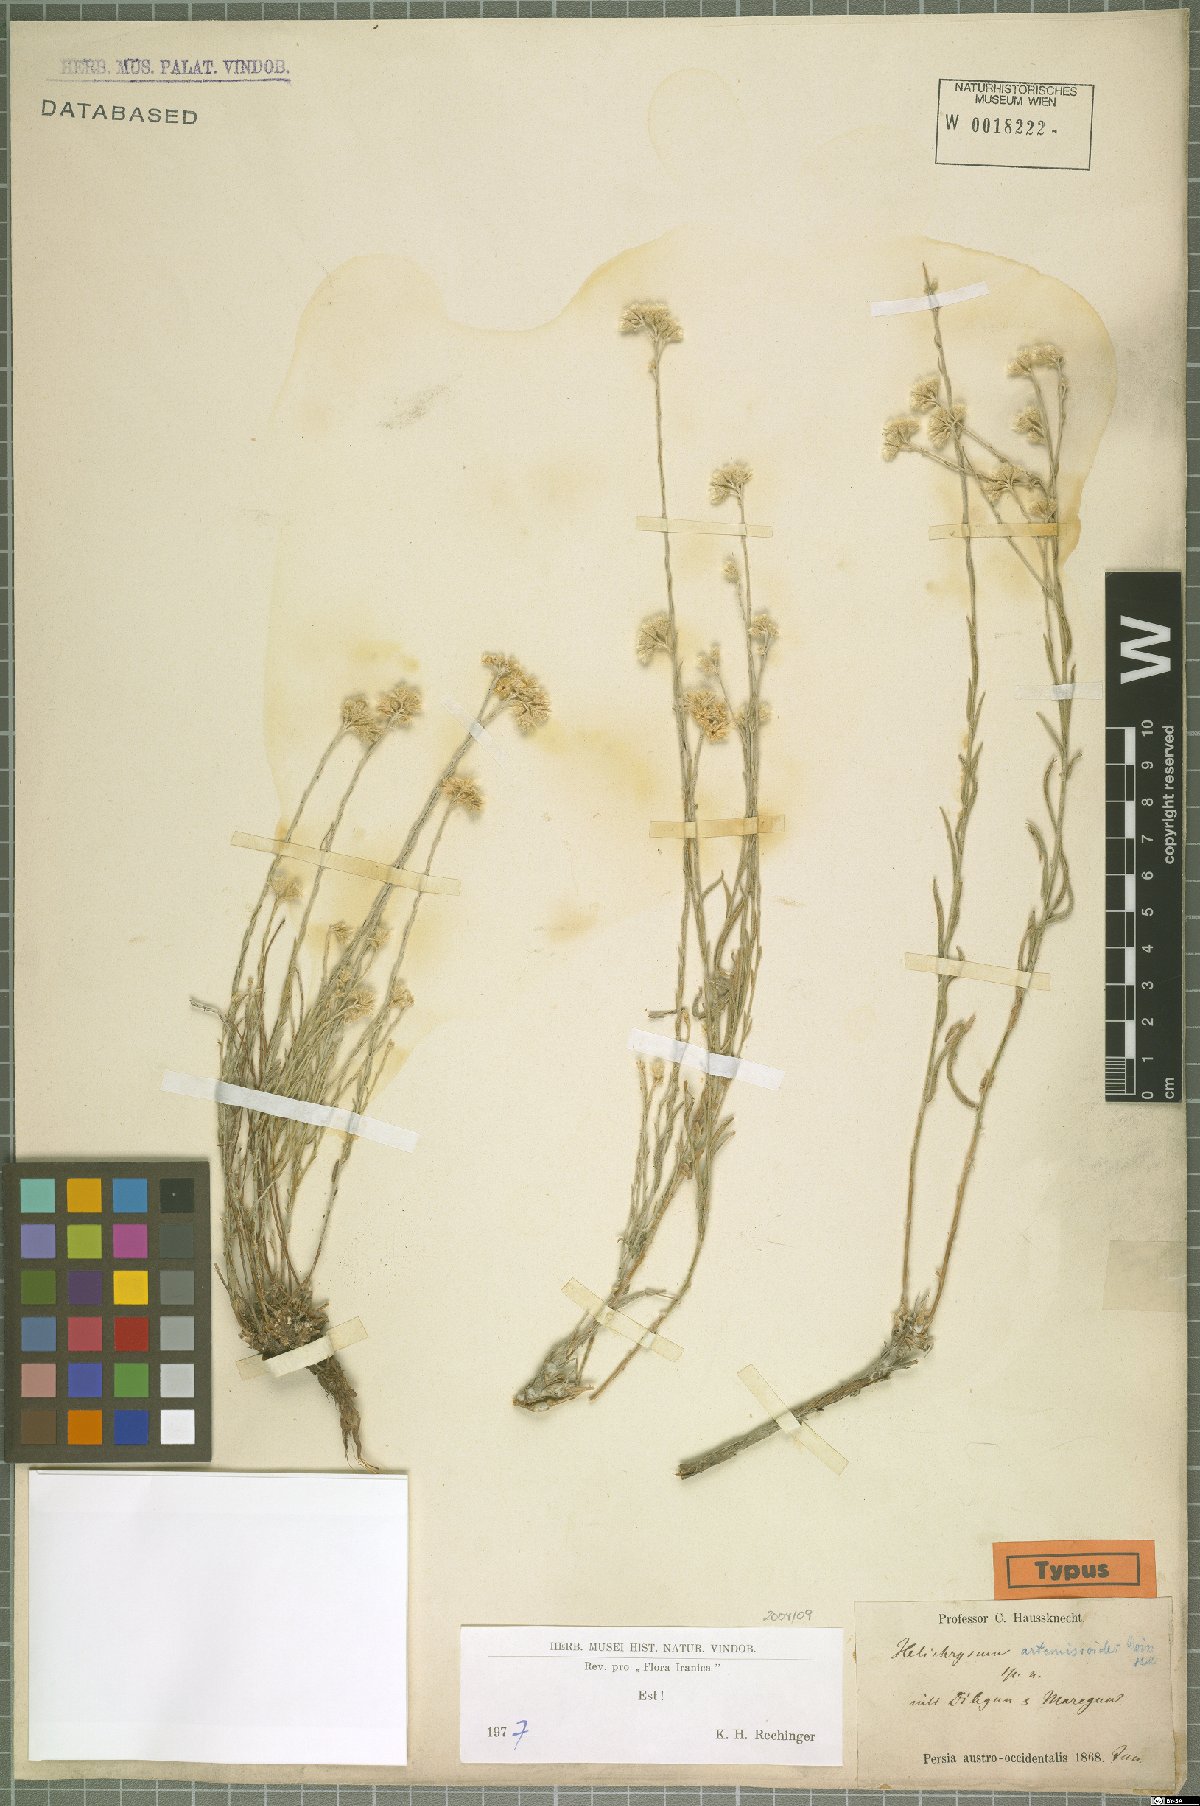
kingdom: Plantae
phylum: Tracheophyta
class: Magnoliopsida
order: Asterales
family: Asteraceae
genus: Helichrysum
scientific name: Helichrysum artemisioides
